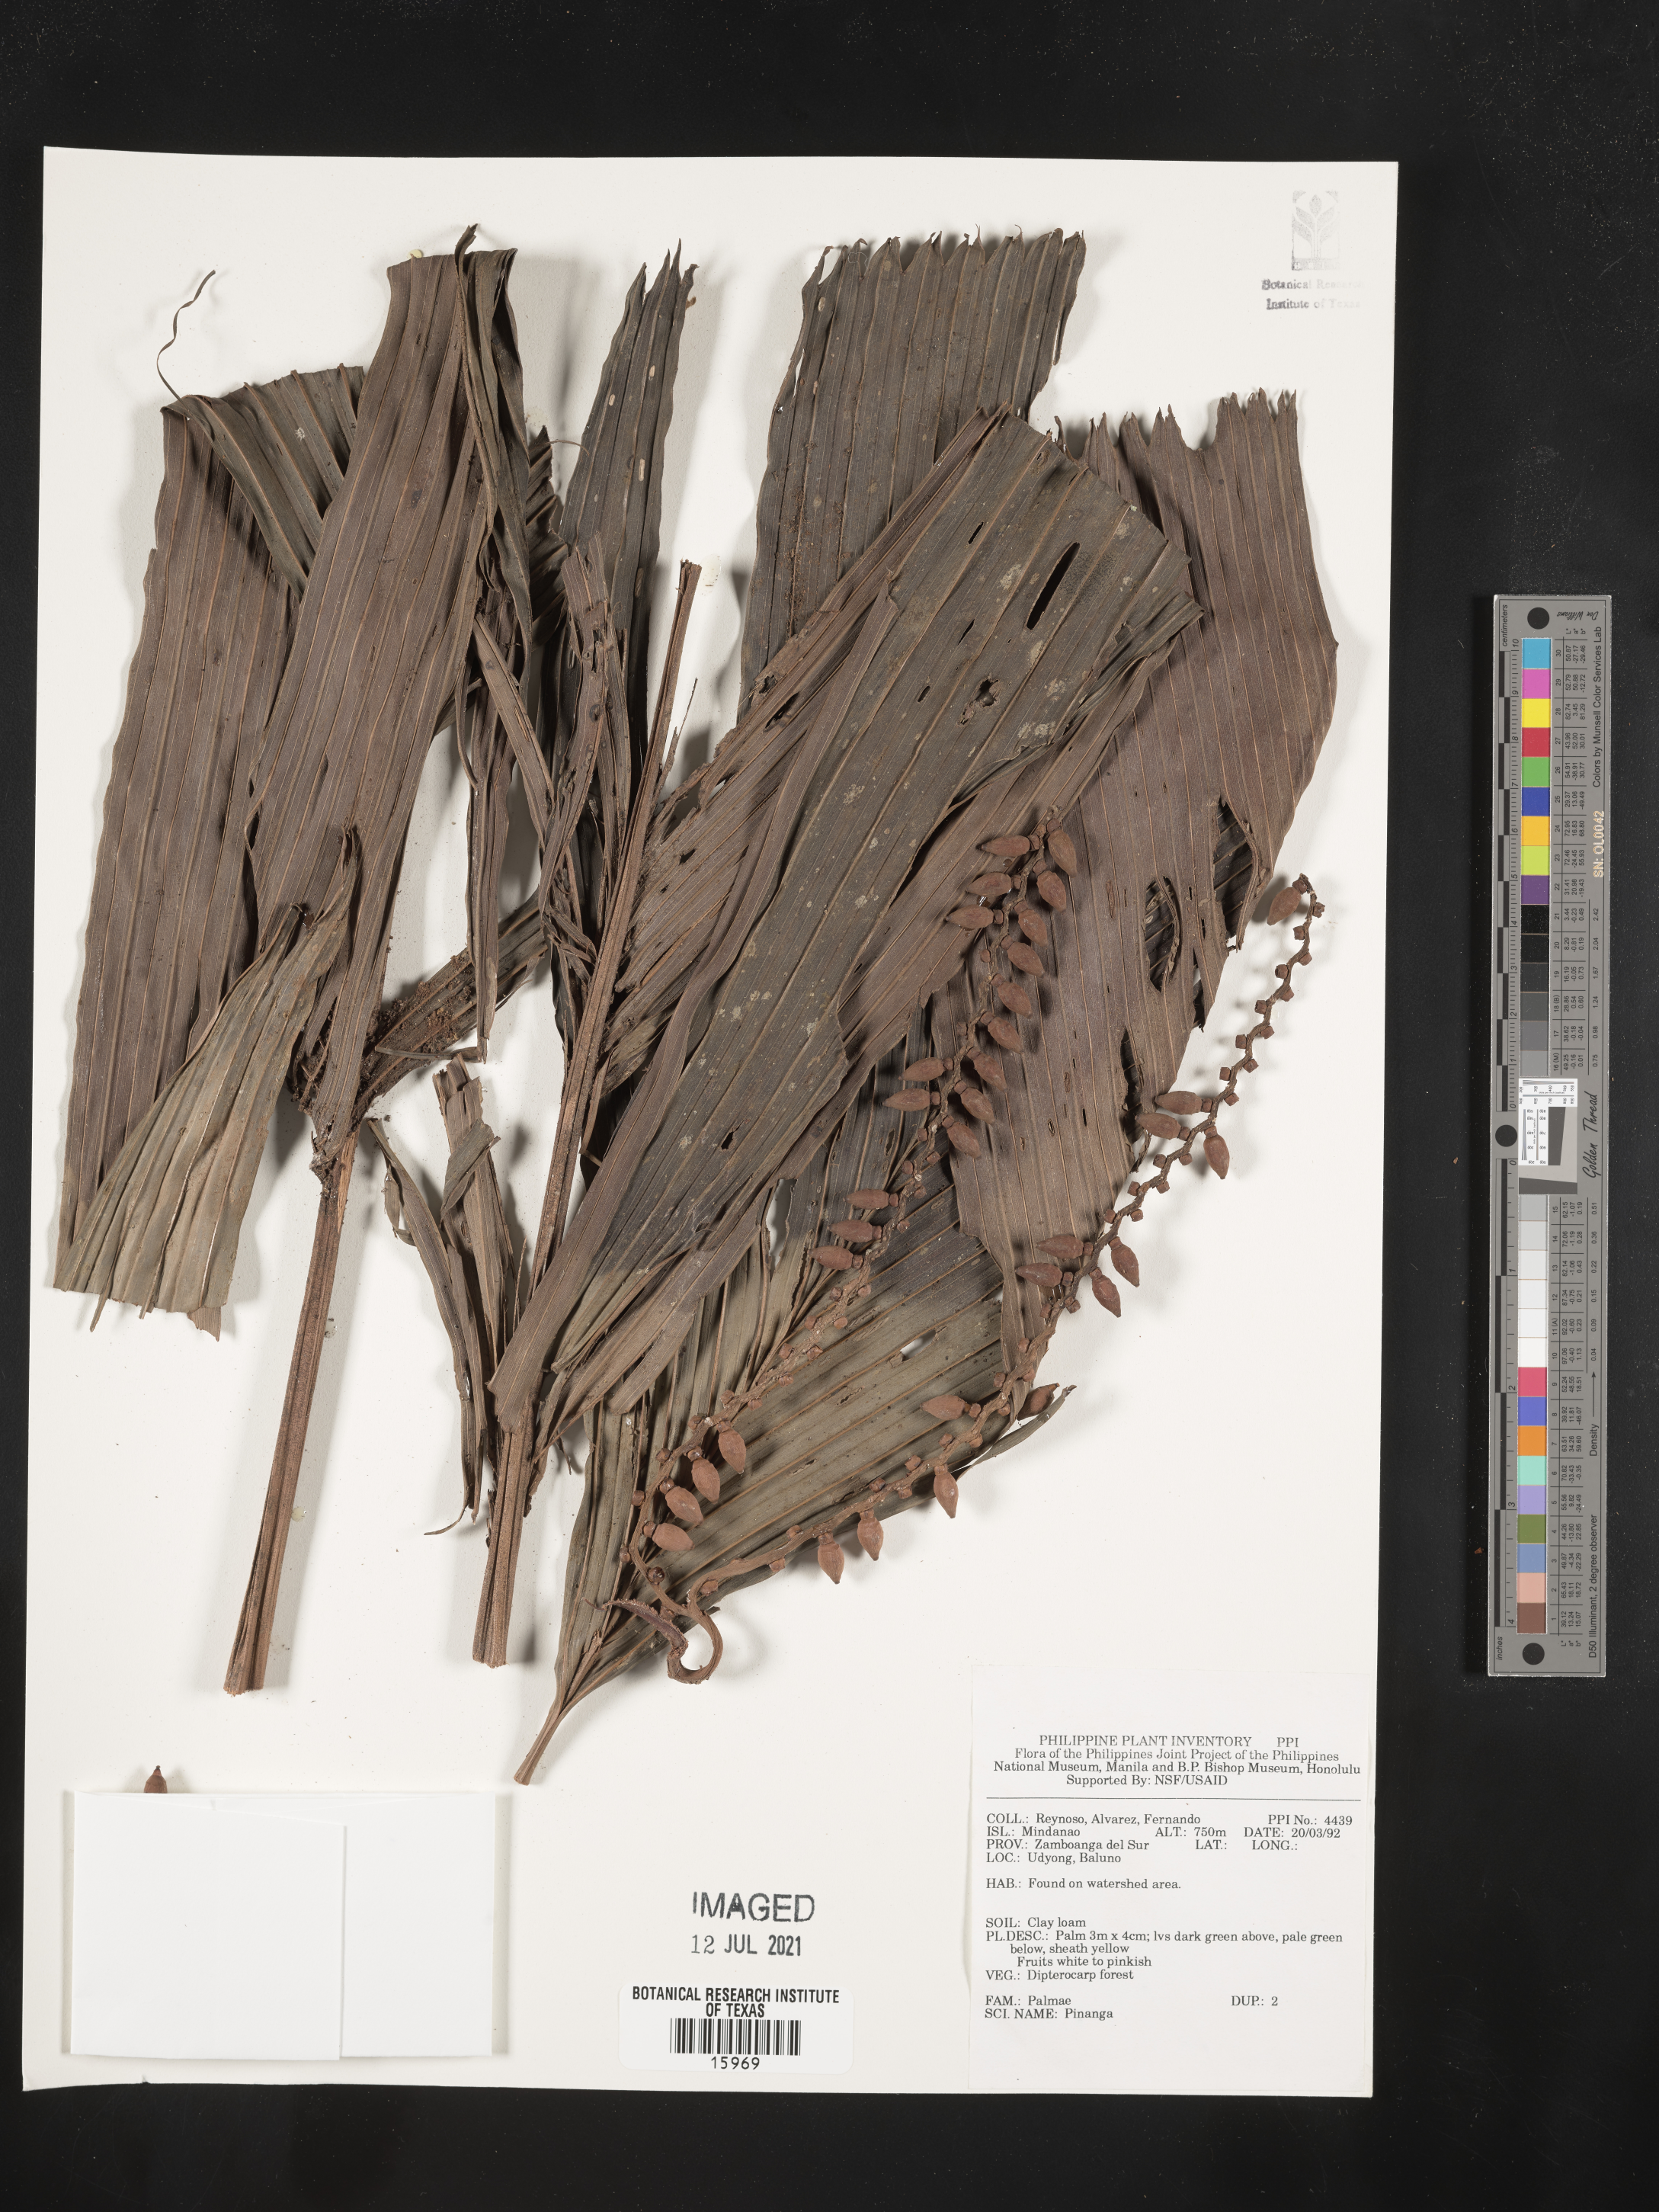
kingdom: Plantae
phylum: Tracheophyta
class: Liliopsida
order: Arecales
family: Arecaceae
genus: Pinanga
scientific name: Pinanga
